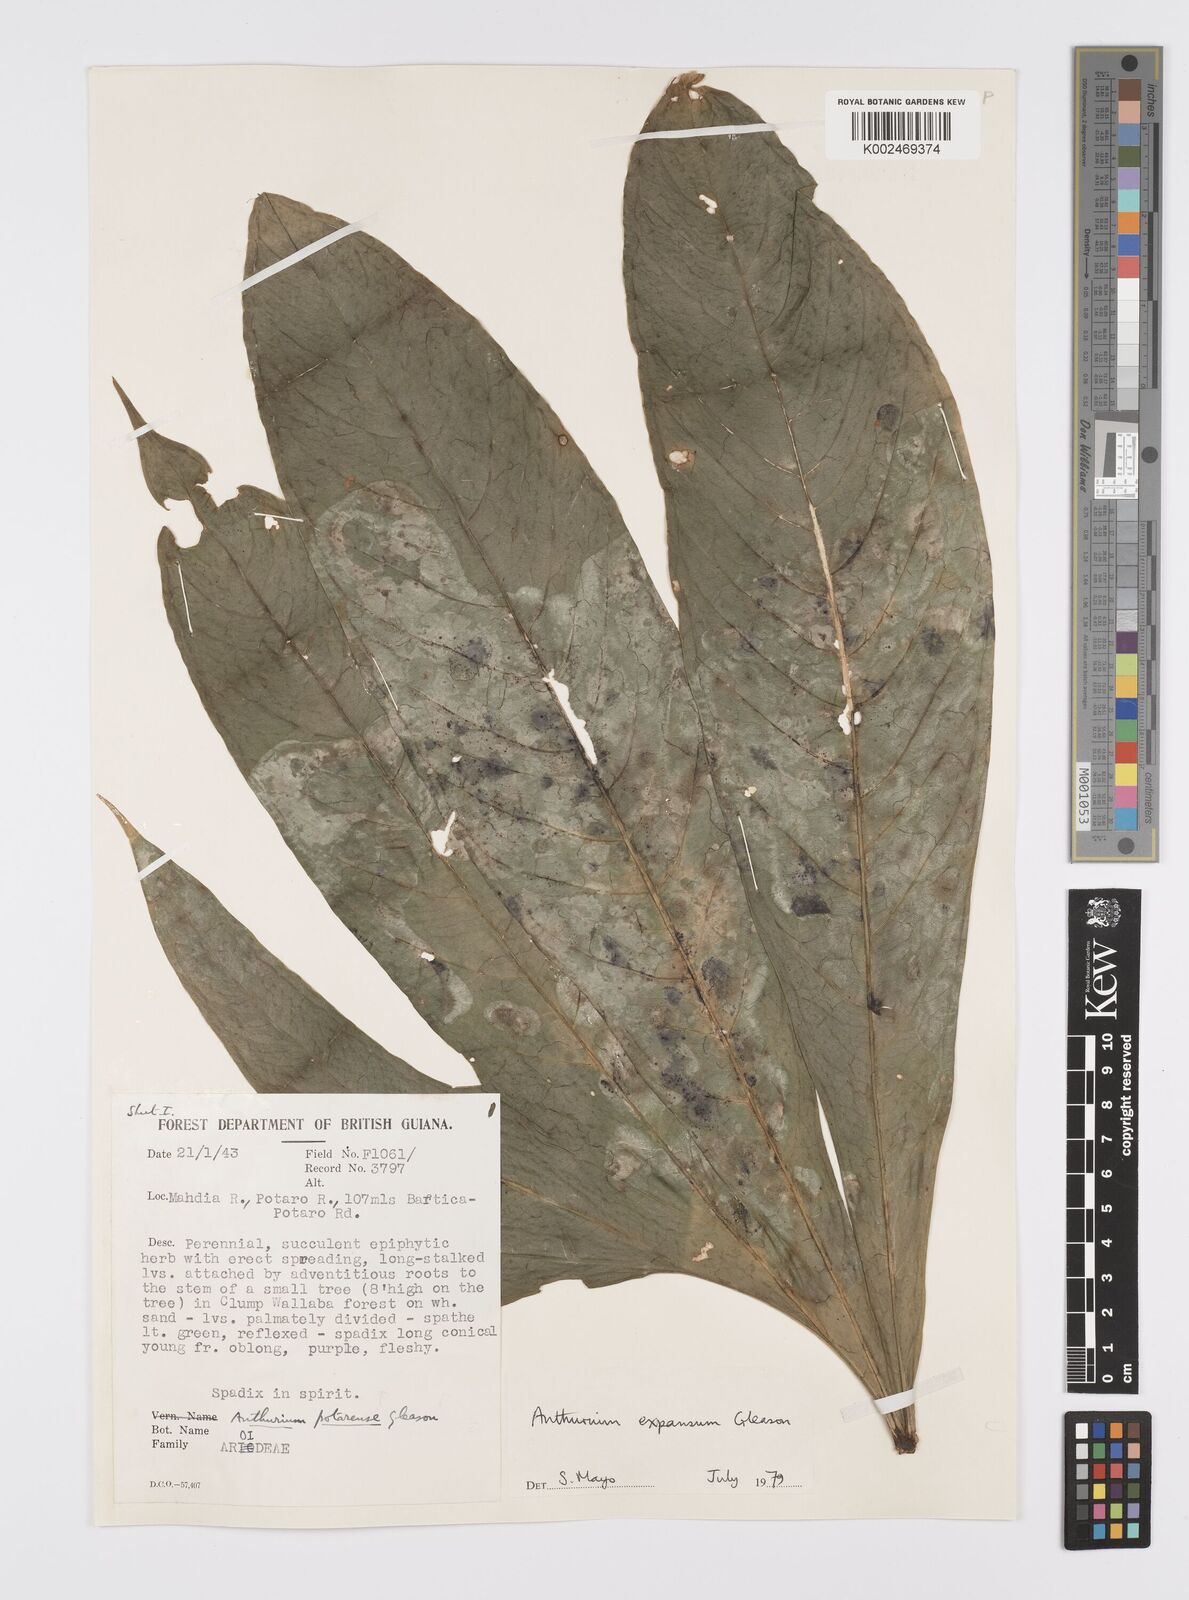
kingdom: Plantae
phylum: Tracheophyta
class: Liliopsida
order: Alismatales
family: Araceae
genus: Anthurium
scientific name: Anthurium expansum
